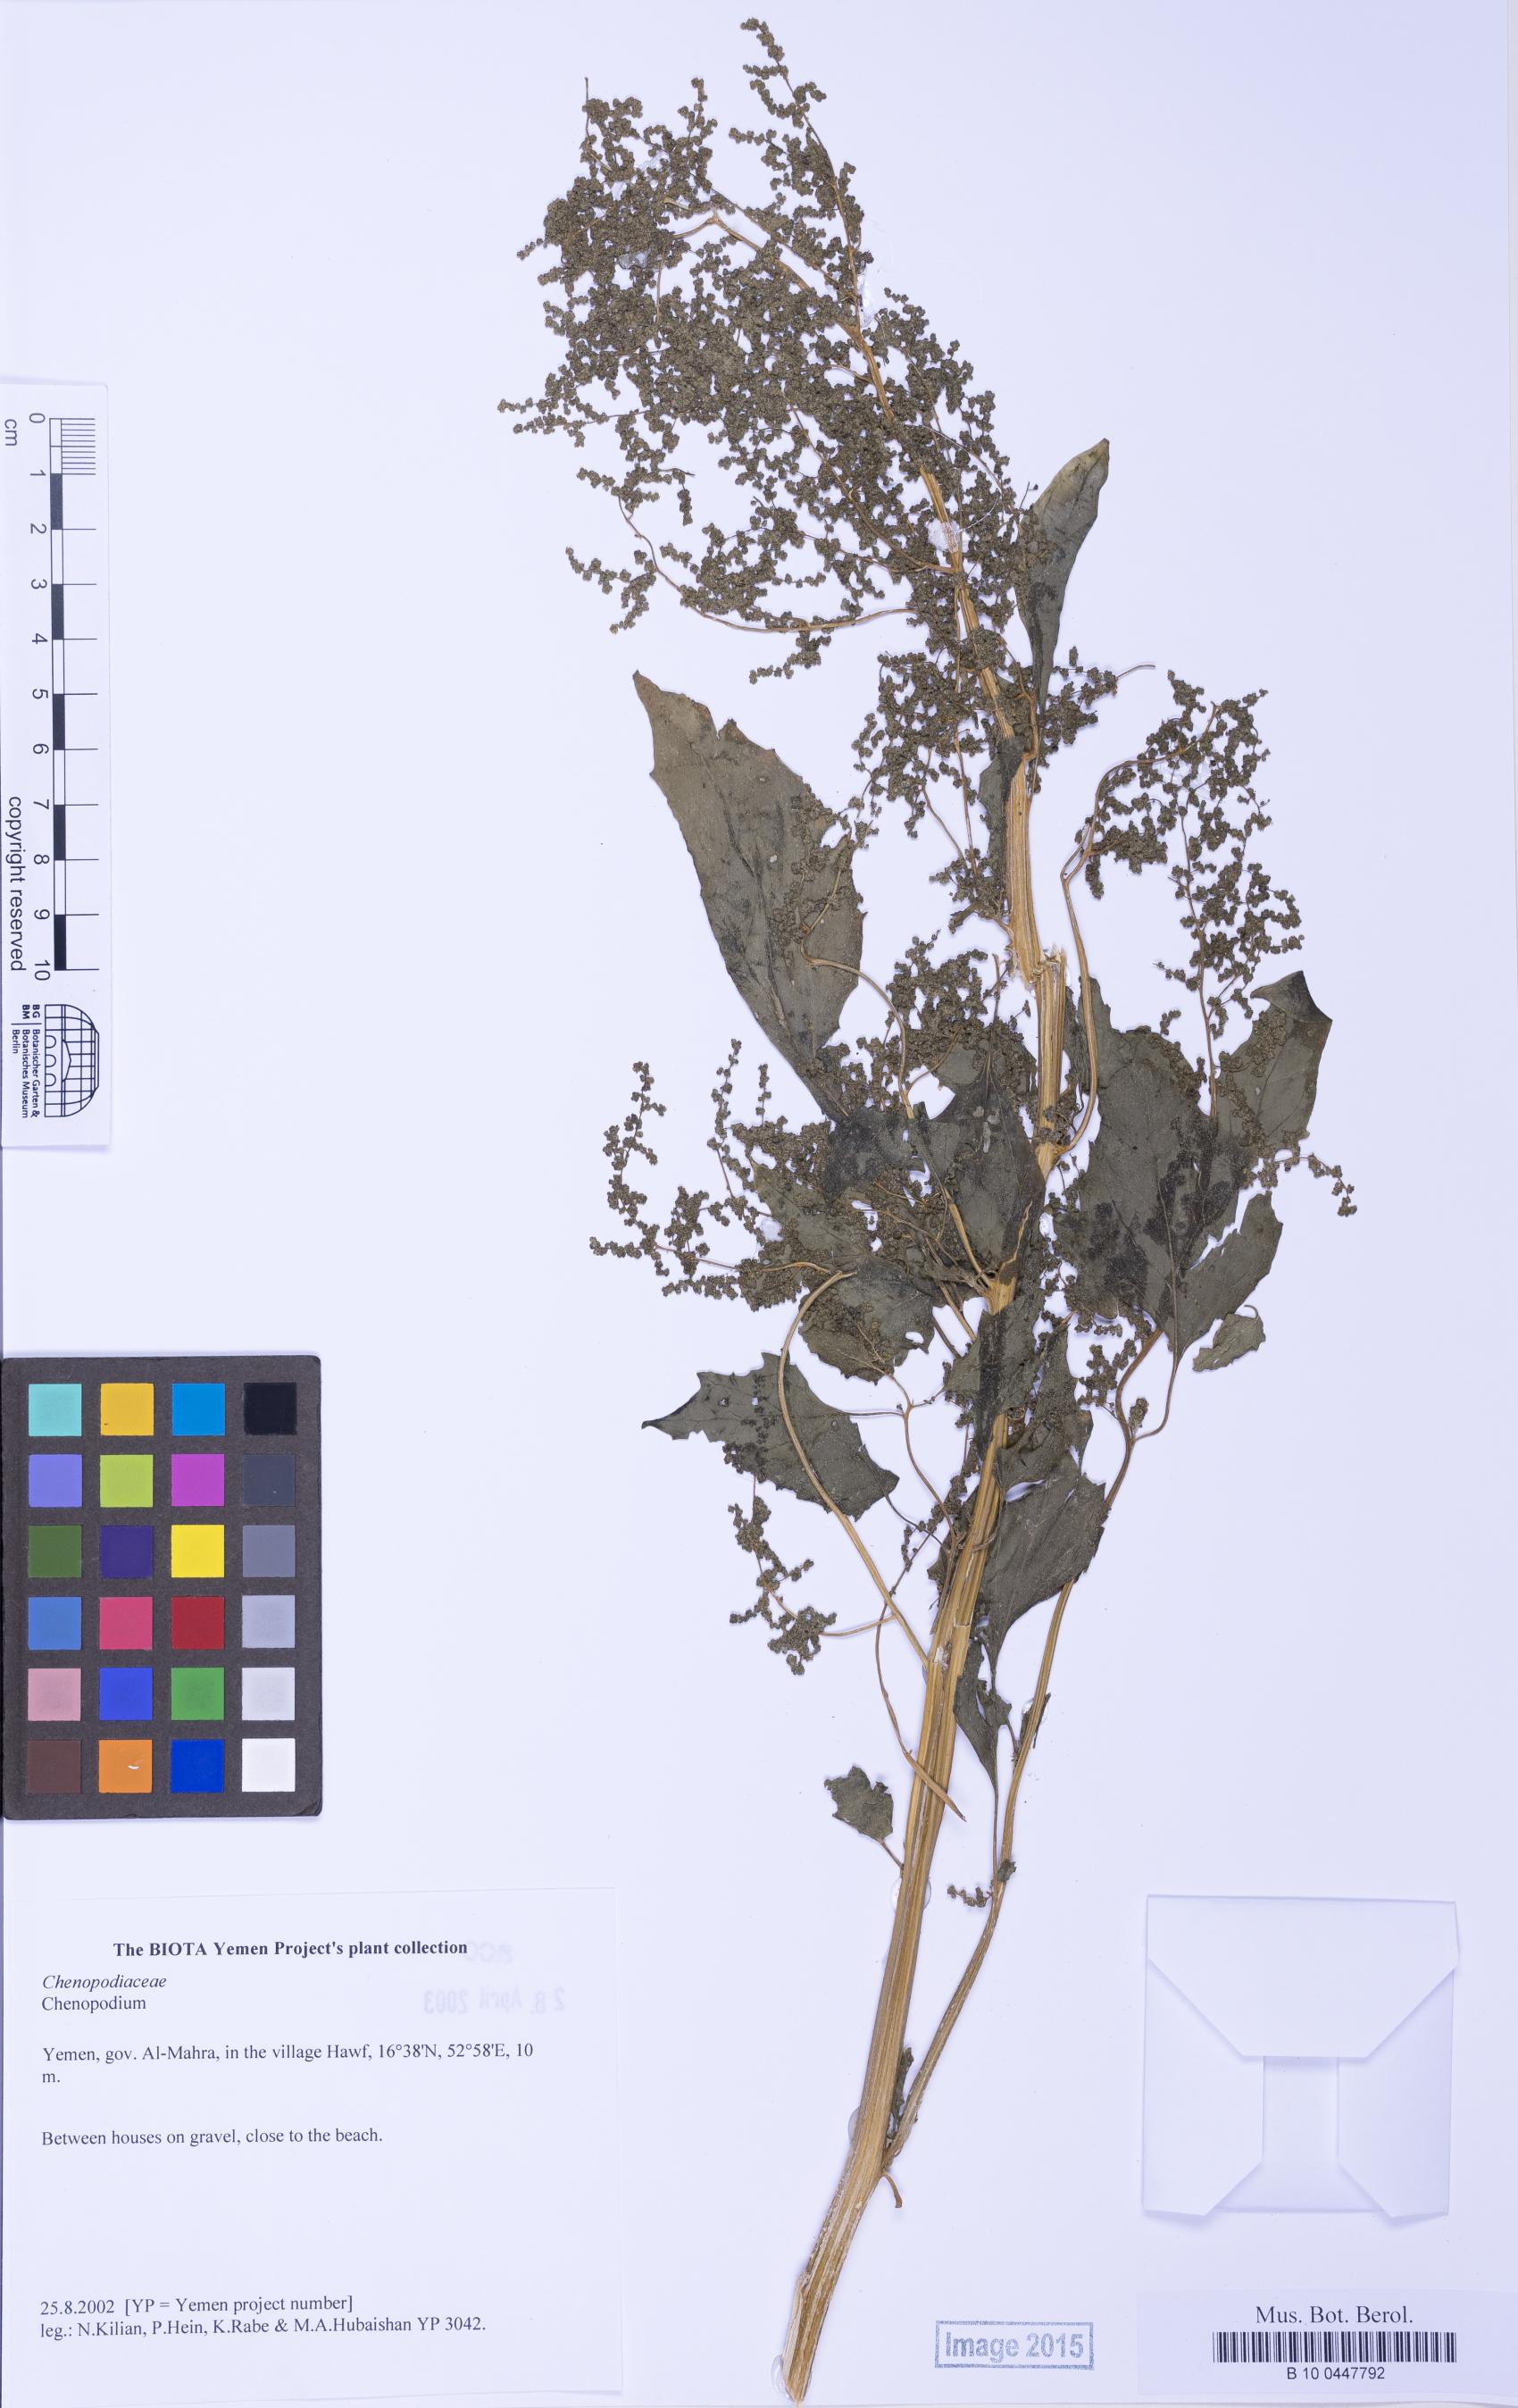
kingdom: Plantae
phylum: Tracheophyta
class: Magnoliopsida
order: Caryophyllales
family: Amaranthaceae
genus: Chenopodium
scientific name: Chenopodium
